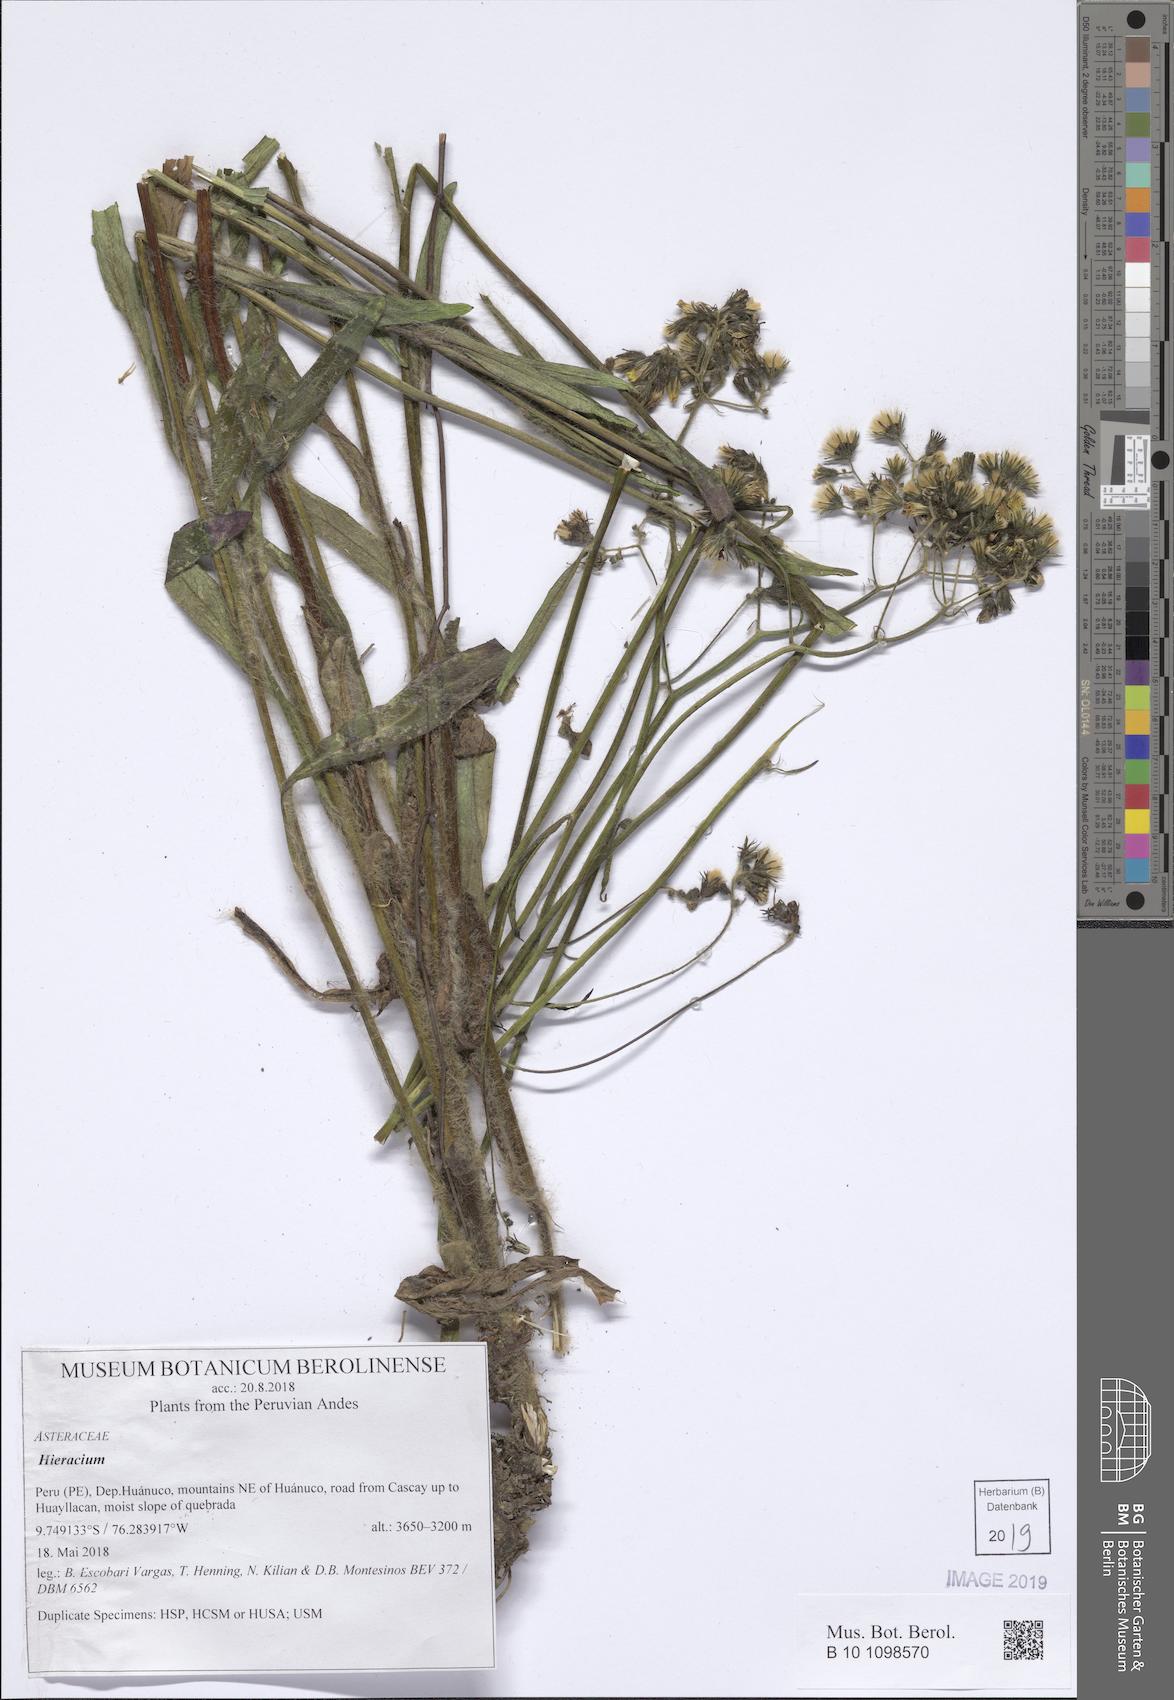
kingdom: Plantae
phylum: Tracheophyta
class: Magnoliopsida
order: Asterales
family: Asteraceae
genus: Hieracium
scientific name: Hieracium
